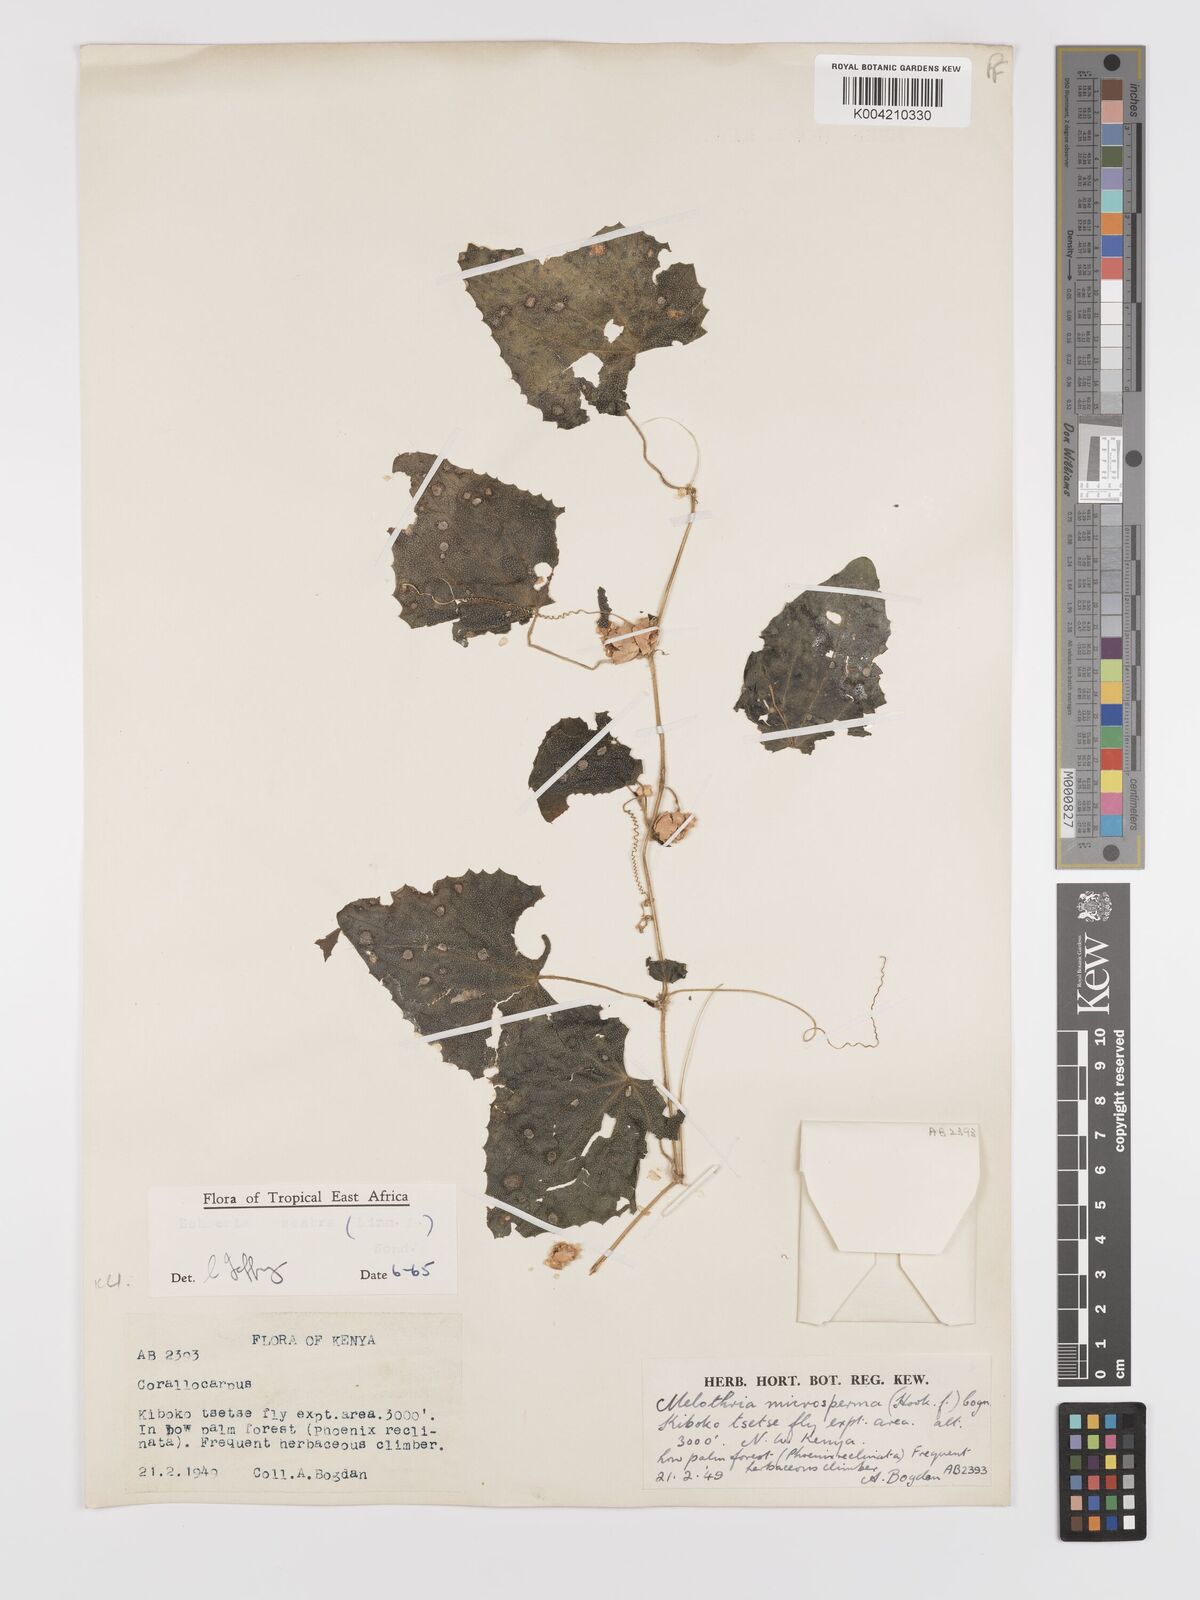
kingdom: Plantae
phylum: Tracheophyta
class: Magnoliopsida
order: Cucurbitales
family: Cucurbitaceae
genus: Zehneria
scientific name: Zehneria scabra
